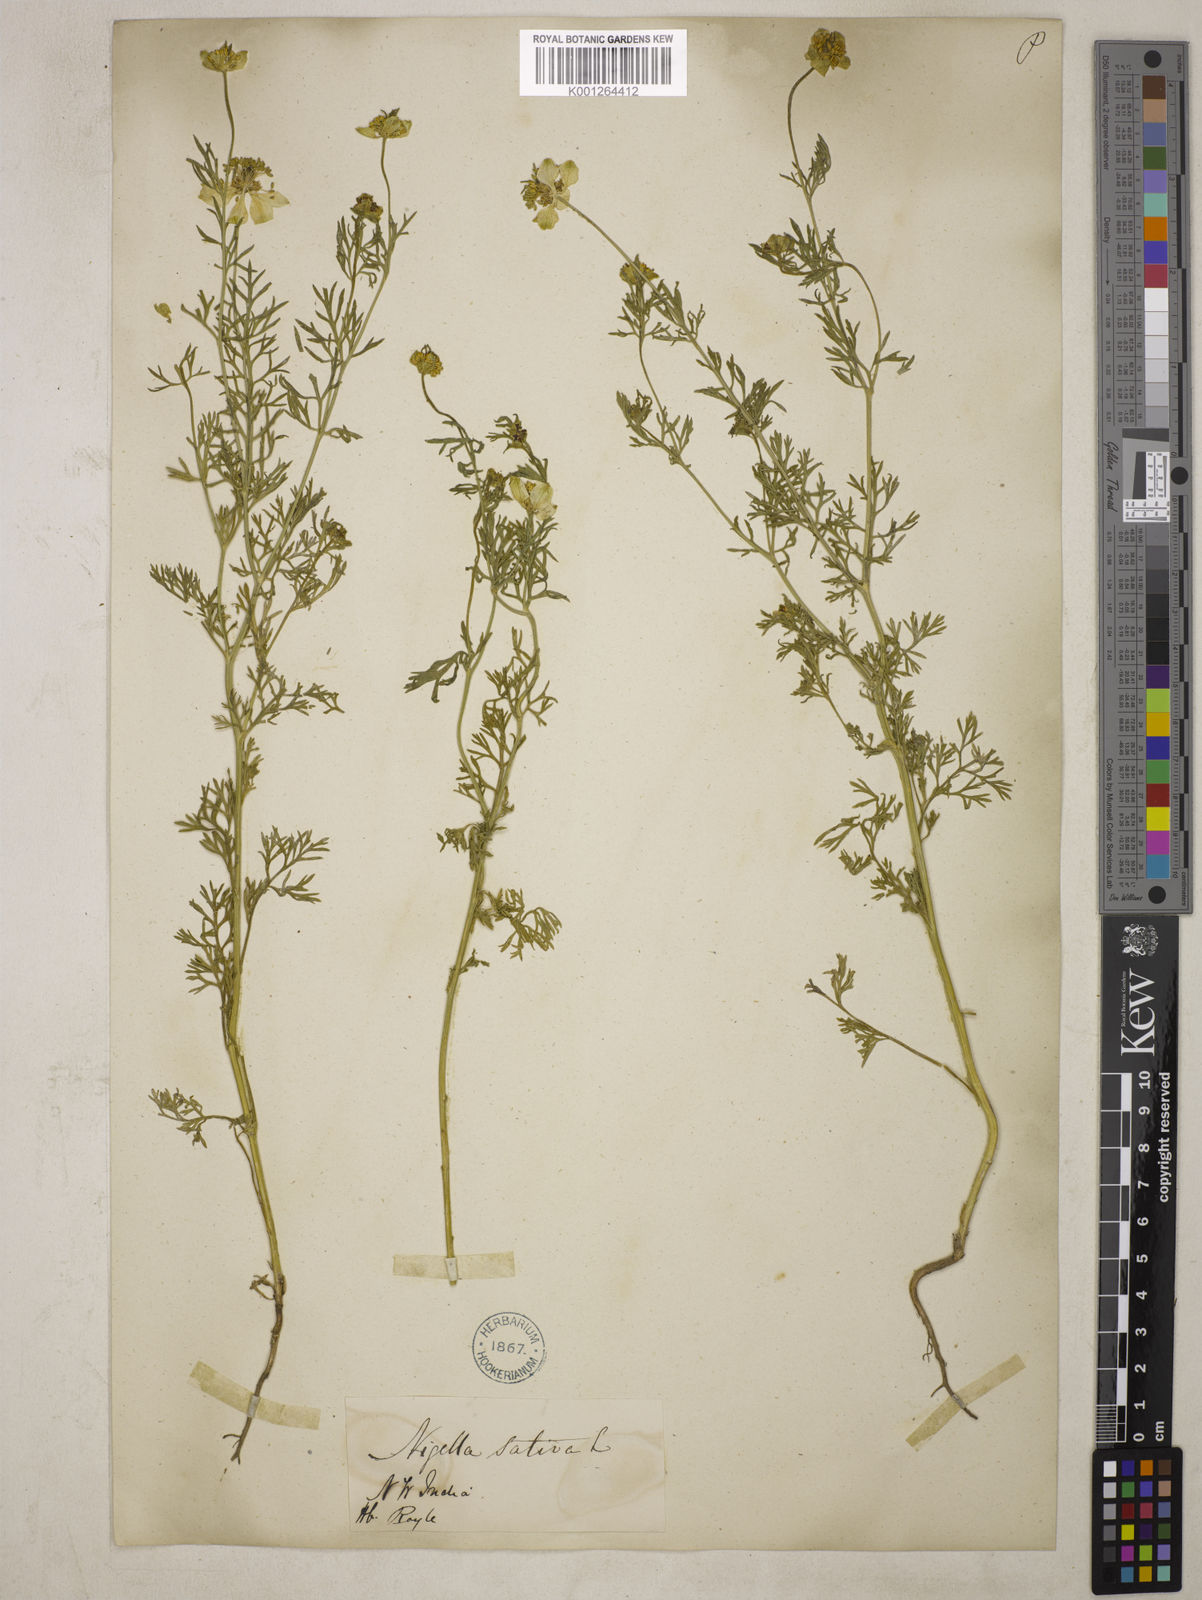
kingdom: Plantae
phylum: Tracheophyta
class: Magnoliopsida
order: Ranunculales
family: Ranunculaceae
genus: Nigella
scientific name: Nigella sativa
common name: Black-cumin
